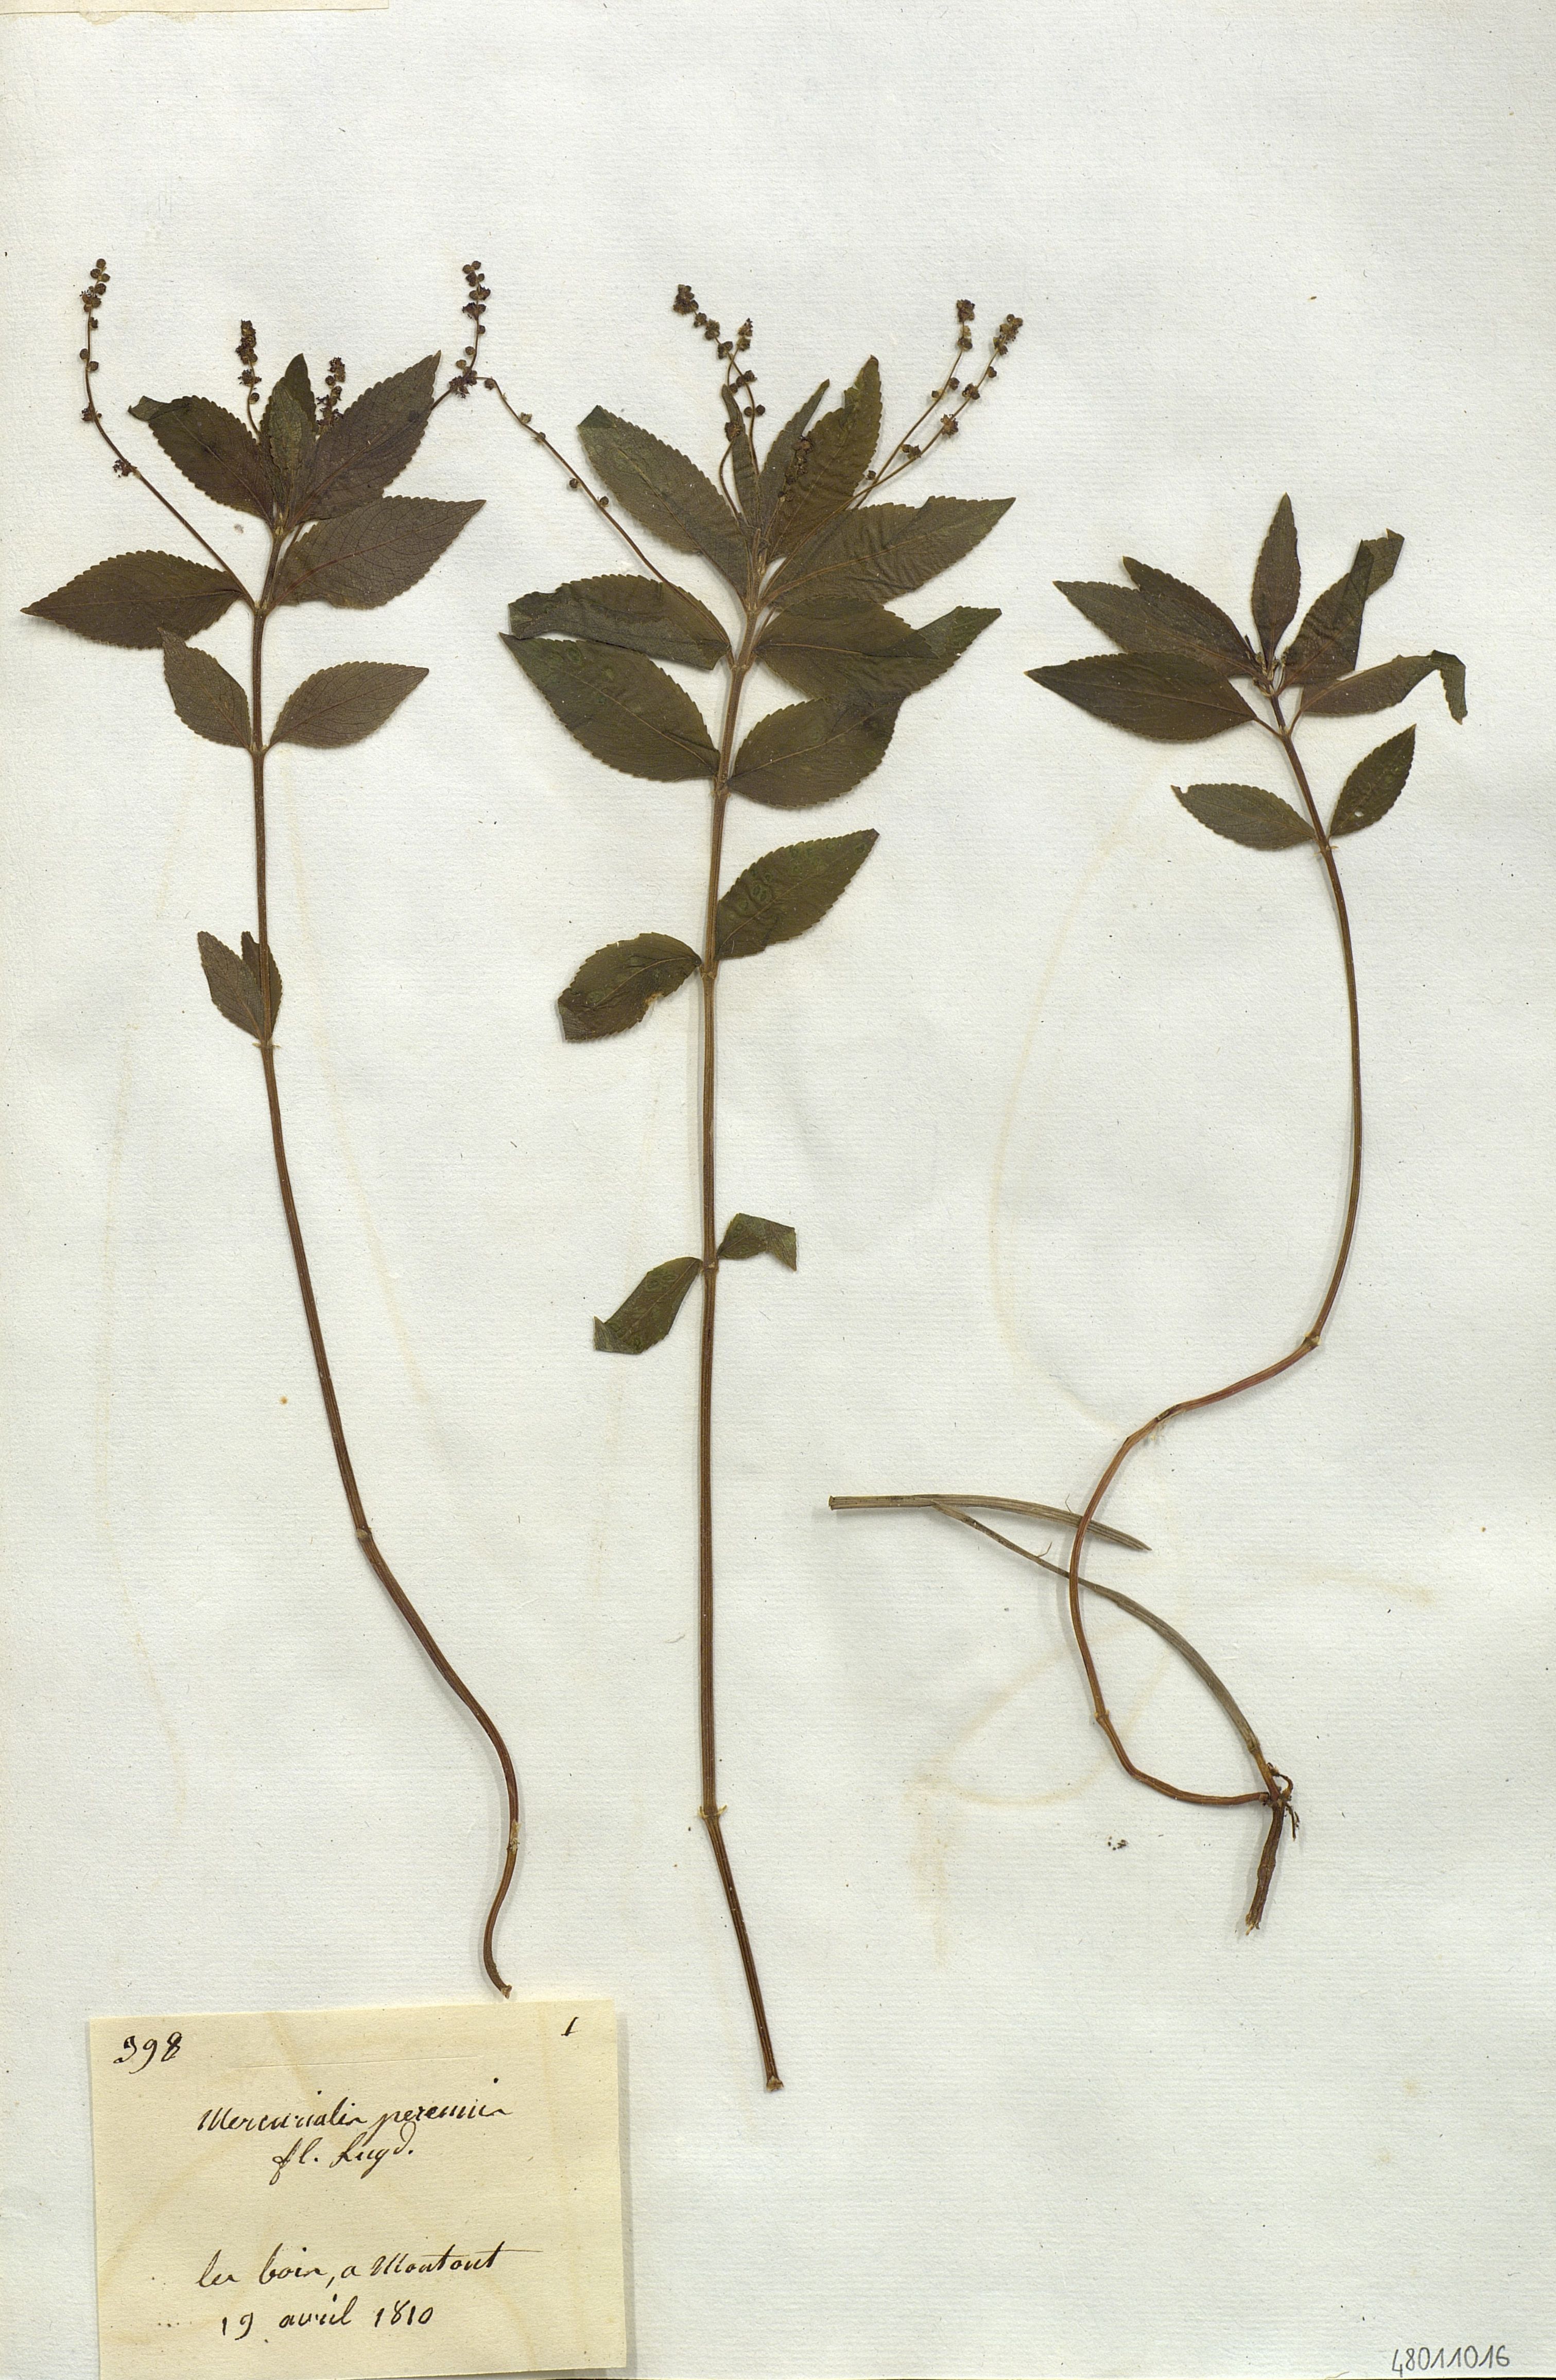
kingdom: Plantae
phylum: Tracheophyta
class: Magnoliopsida
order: Malpighiales
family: Euphorbiaceae
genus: Mercurialis
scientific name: Mercurialis perennis
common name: Dog mercury
